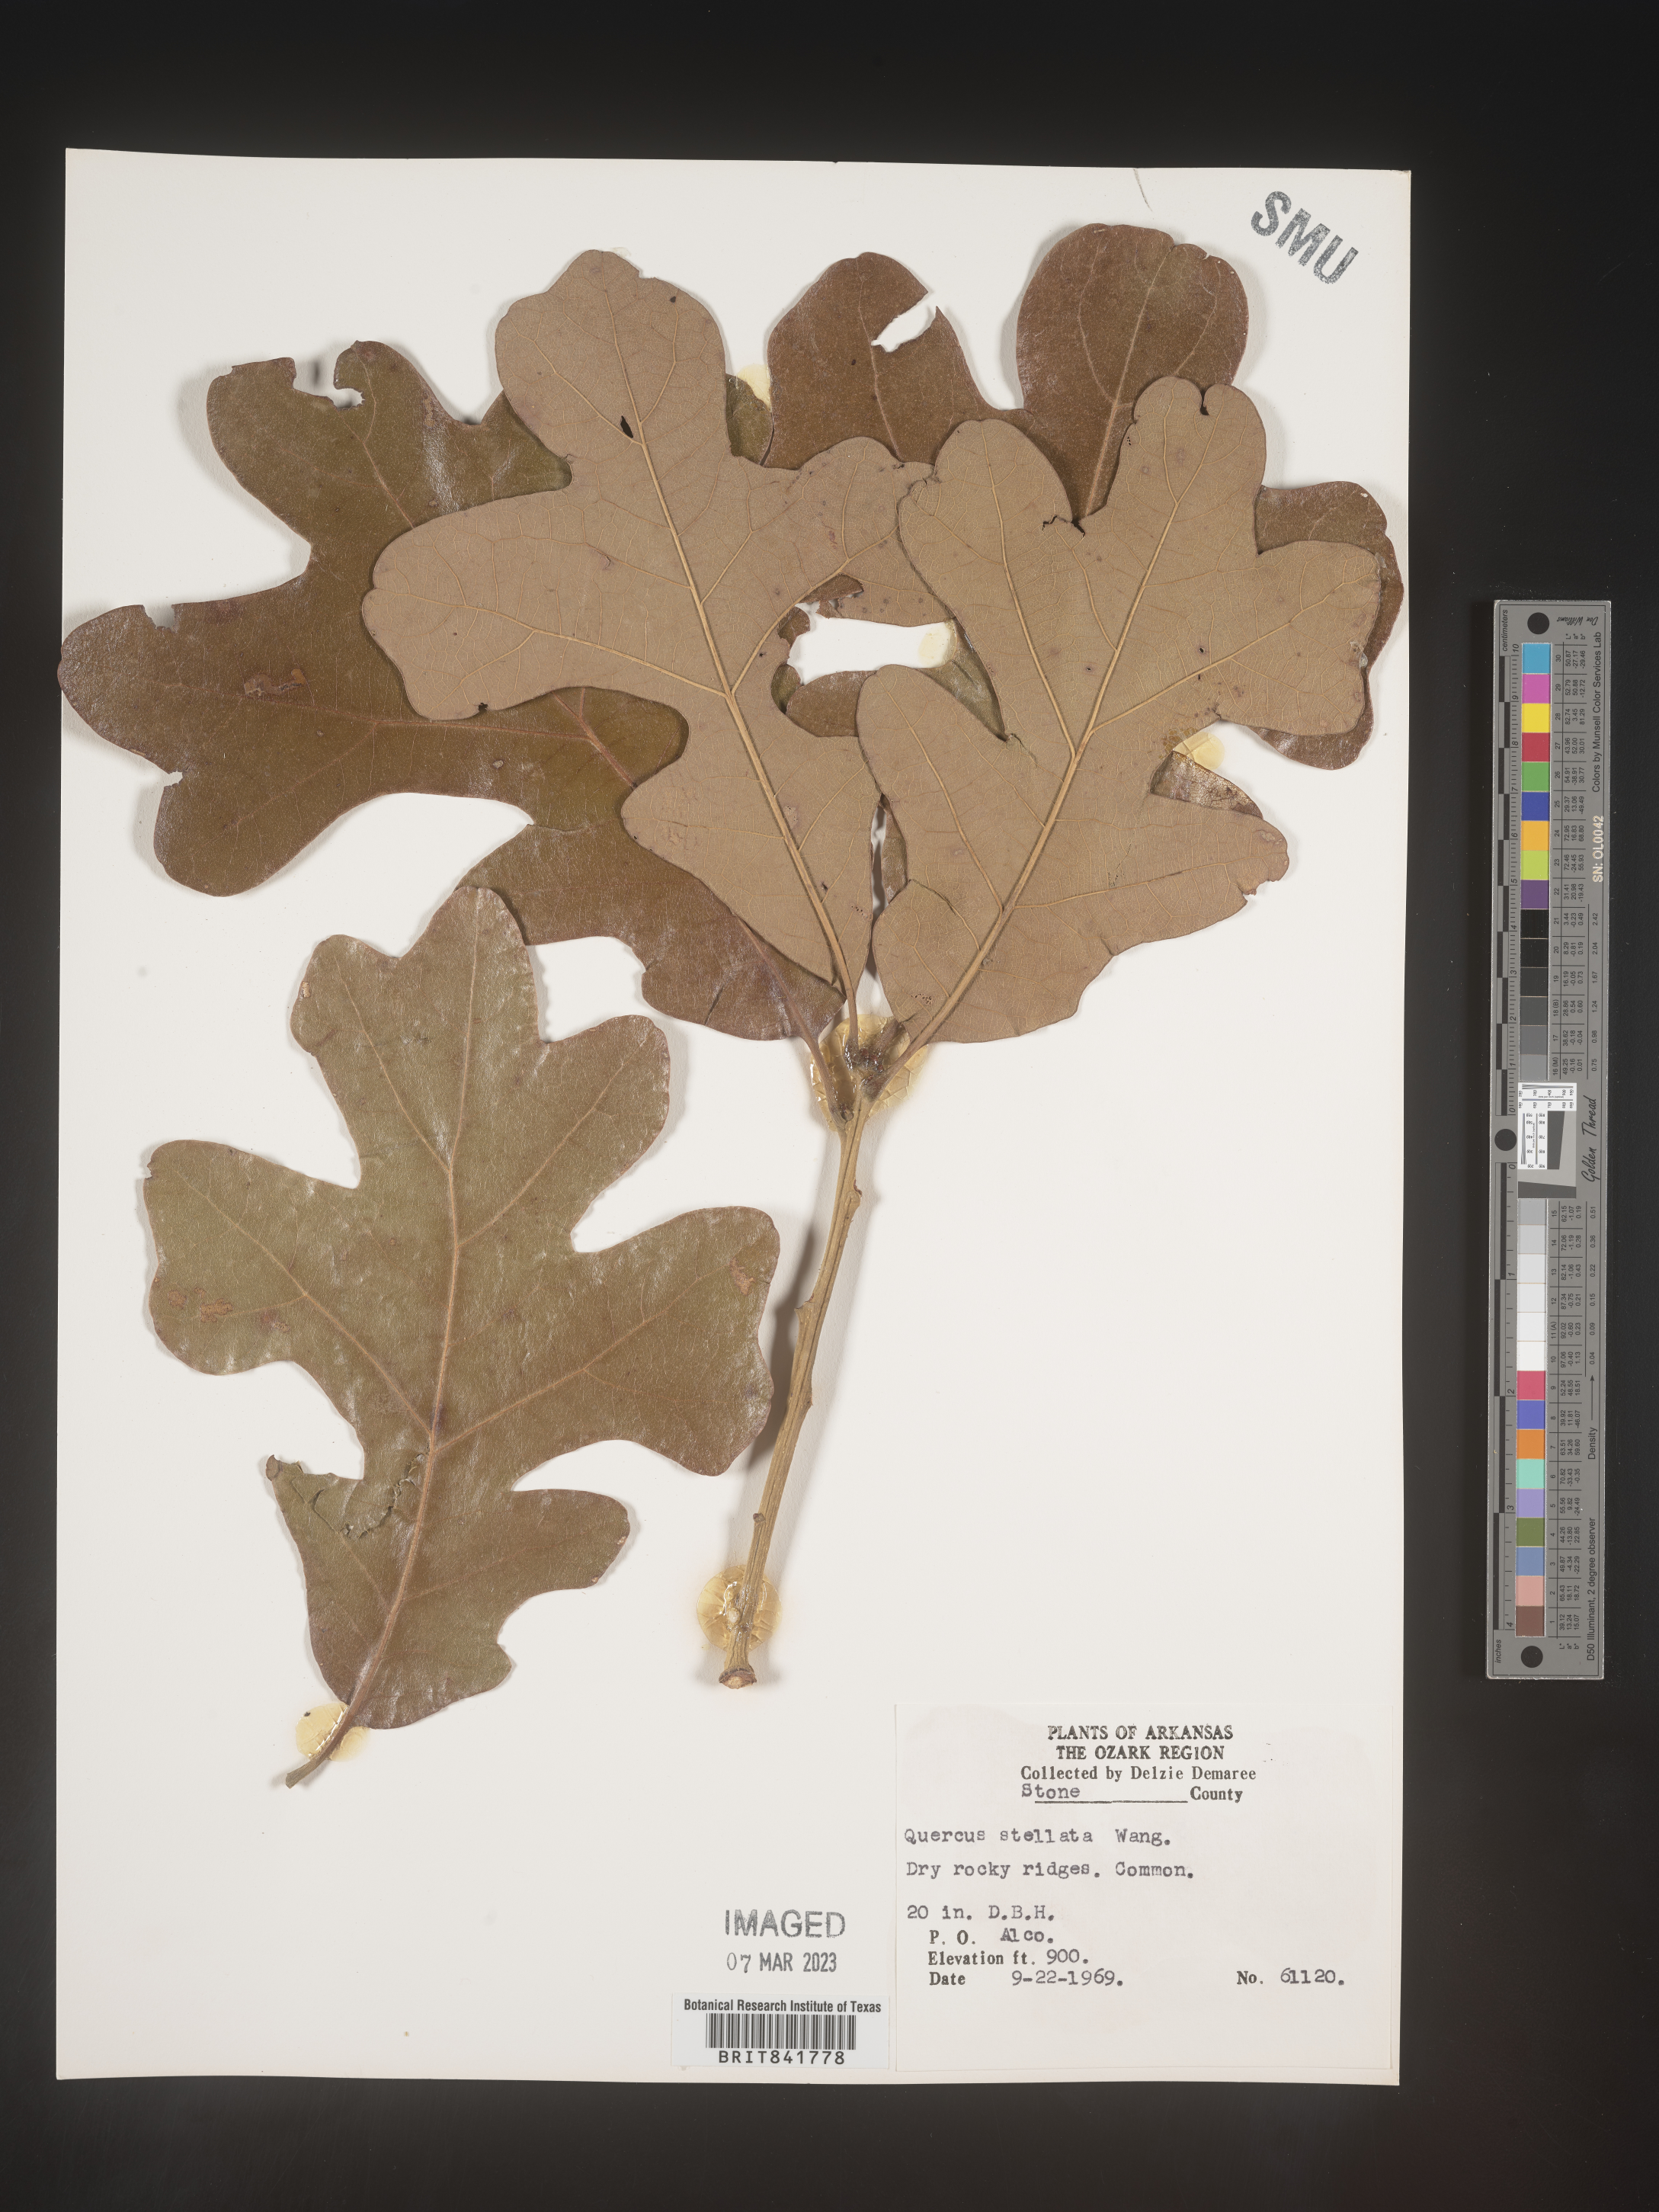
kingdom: Plantae
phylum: Tracheophyta
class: Magnoliopsida
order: Fagales
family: Fagaceae
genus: Quercus
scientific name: Quercus stellata
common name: Post oak
